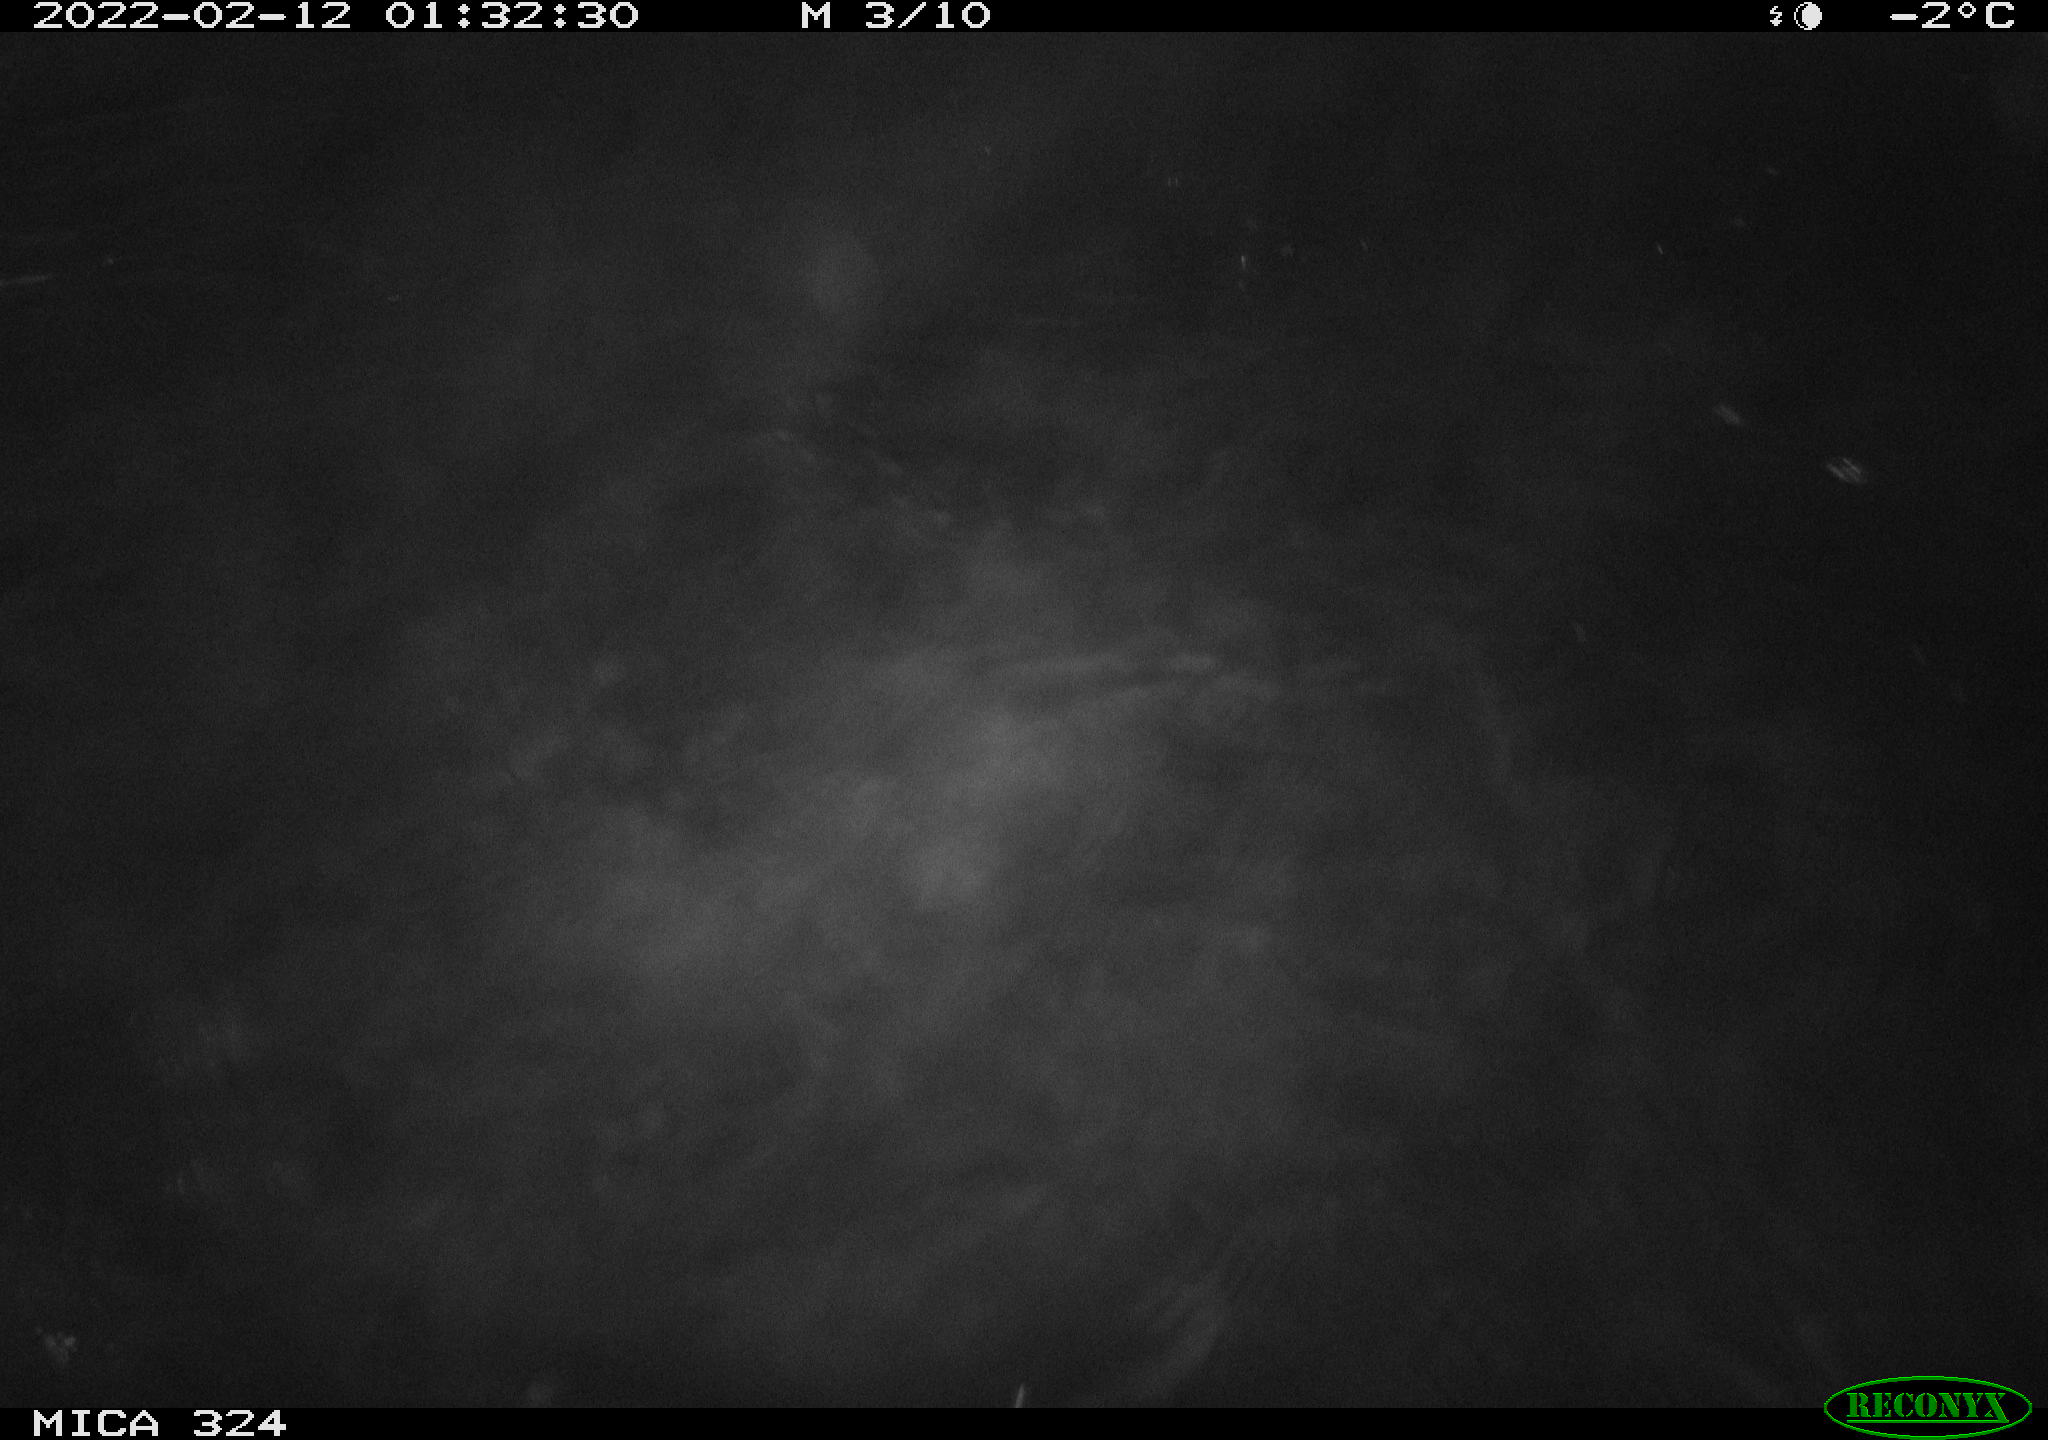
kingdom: Animalia
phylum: Chordata
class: Mammalia
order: Rodentia
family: Cricetidae
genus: Ondatra
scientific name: Ondatra zibethicus
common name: Muskrat
